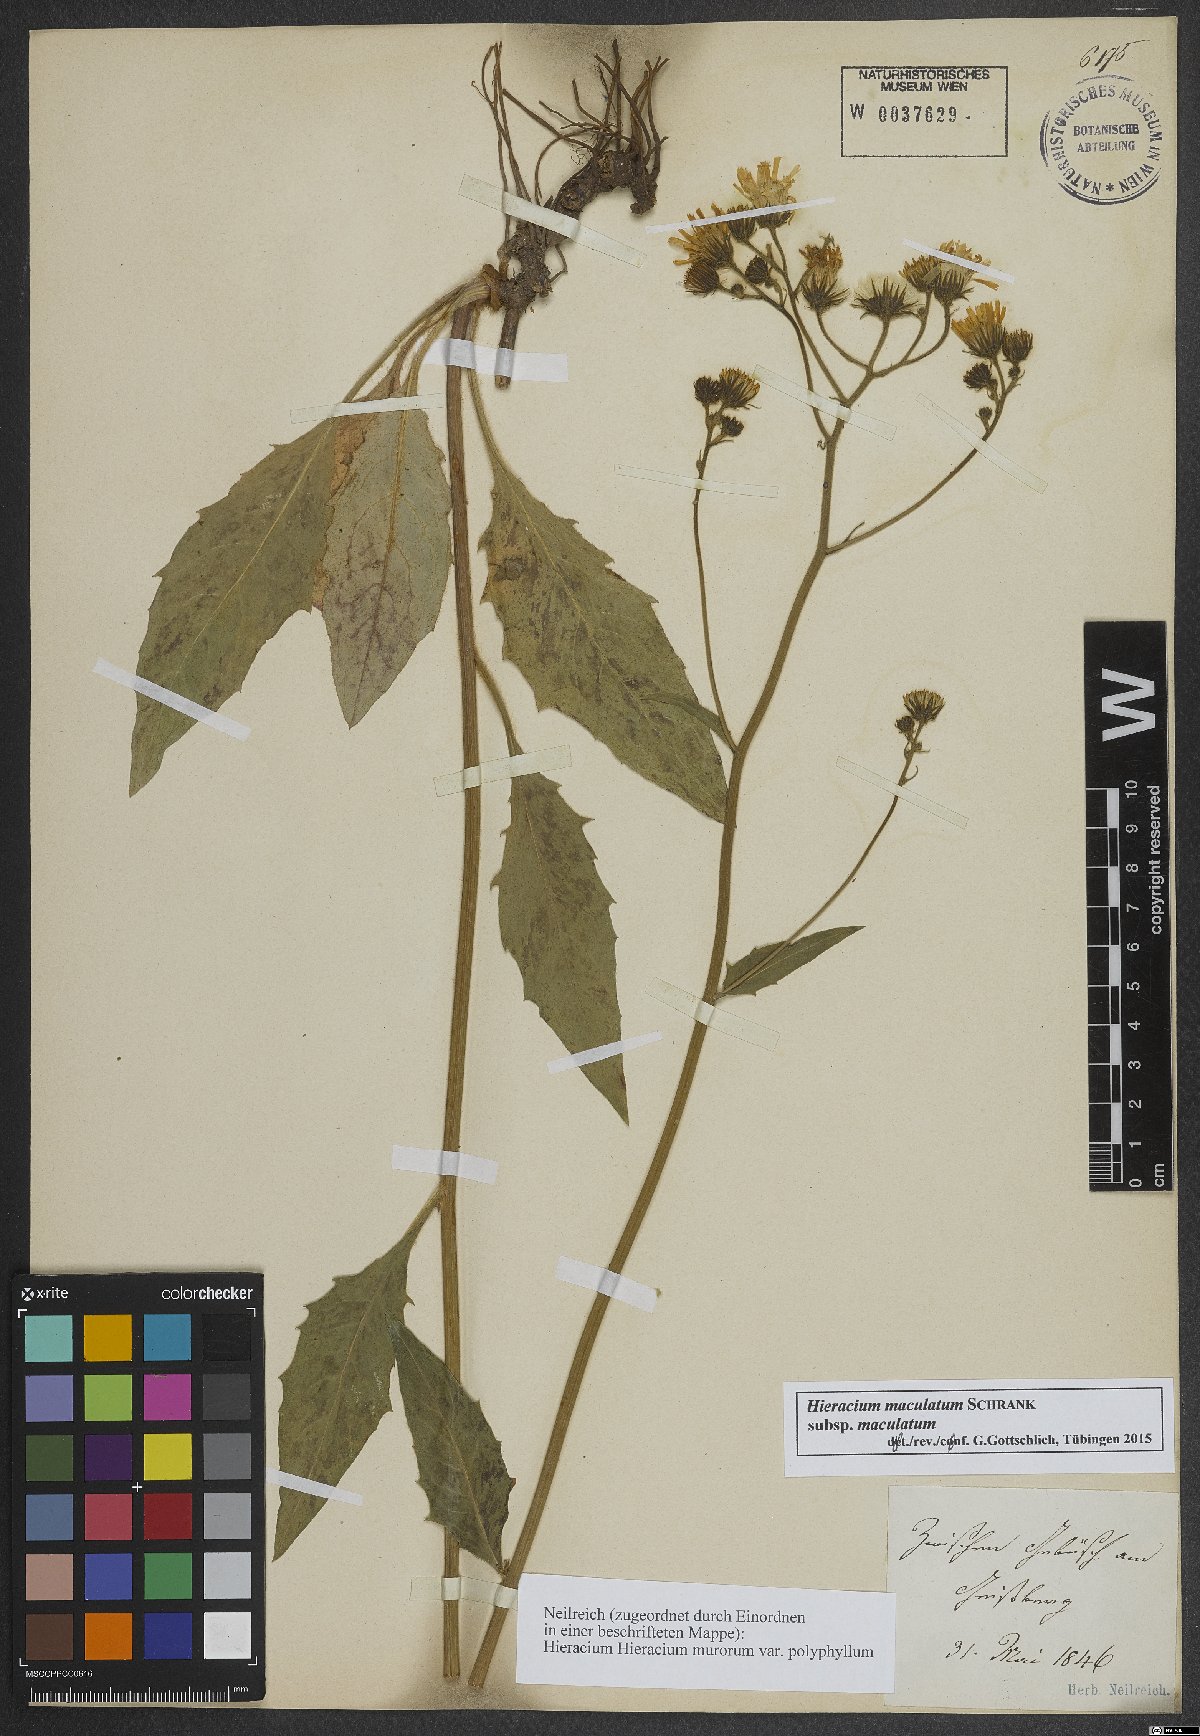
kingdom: Plantae
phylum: Tracheophyta
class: Magnoliopsida
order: Asterales
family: Asteraceae
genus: Hieracium
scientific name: Hieracium maculatum
